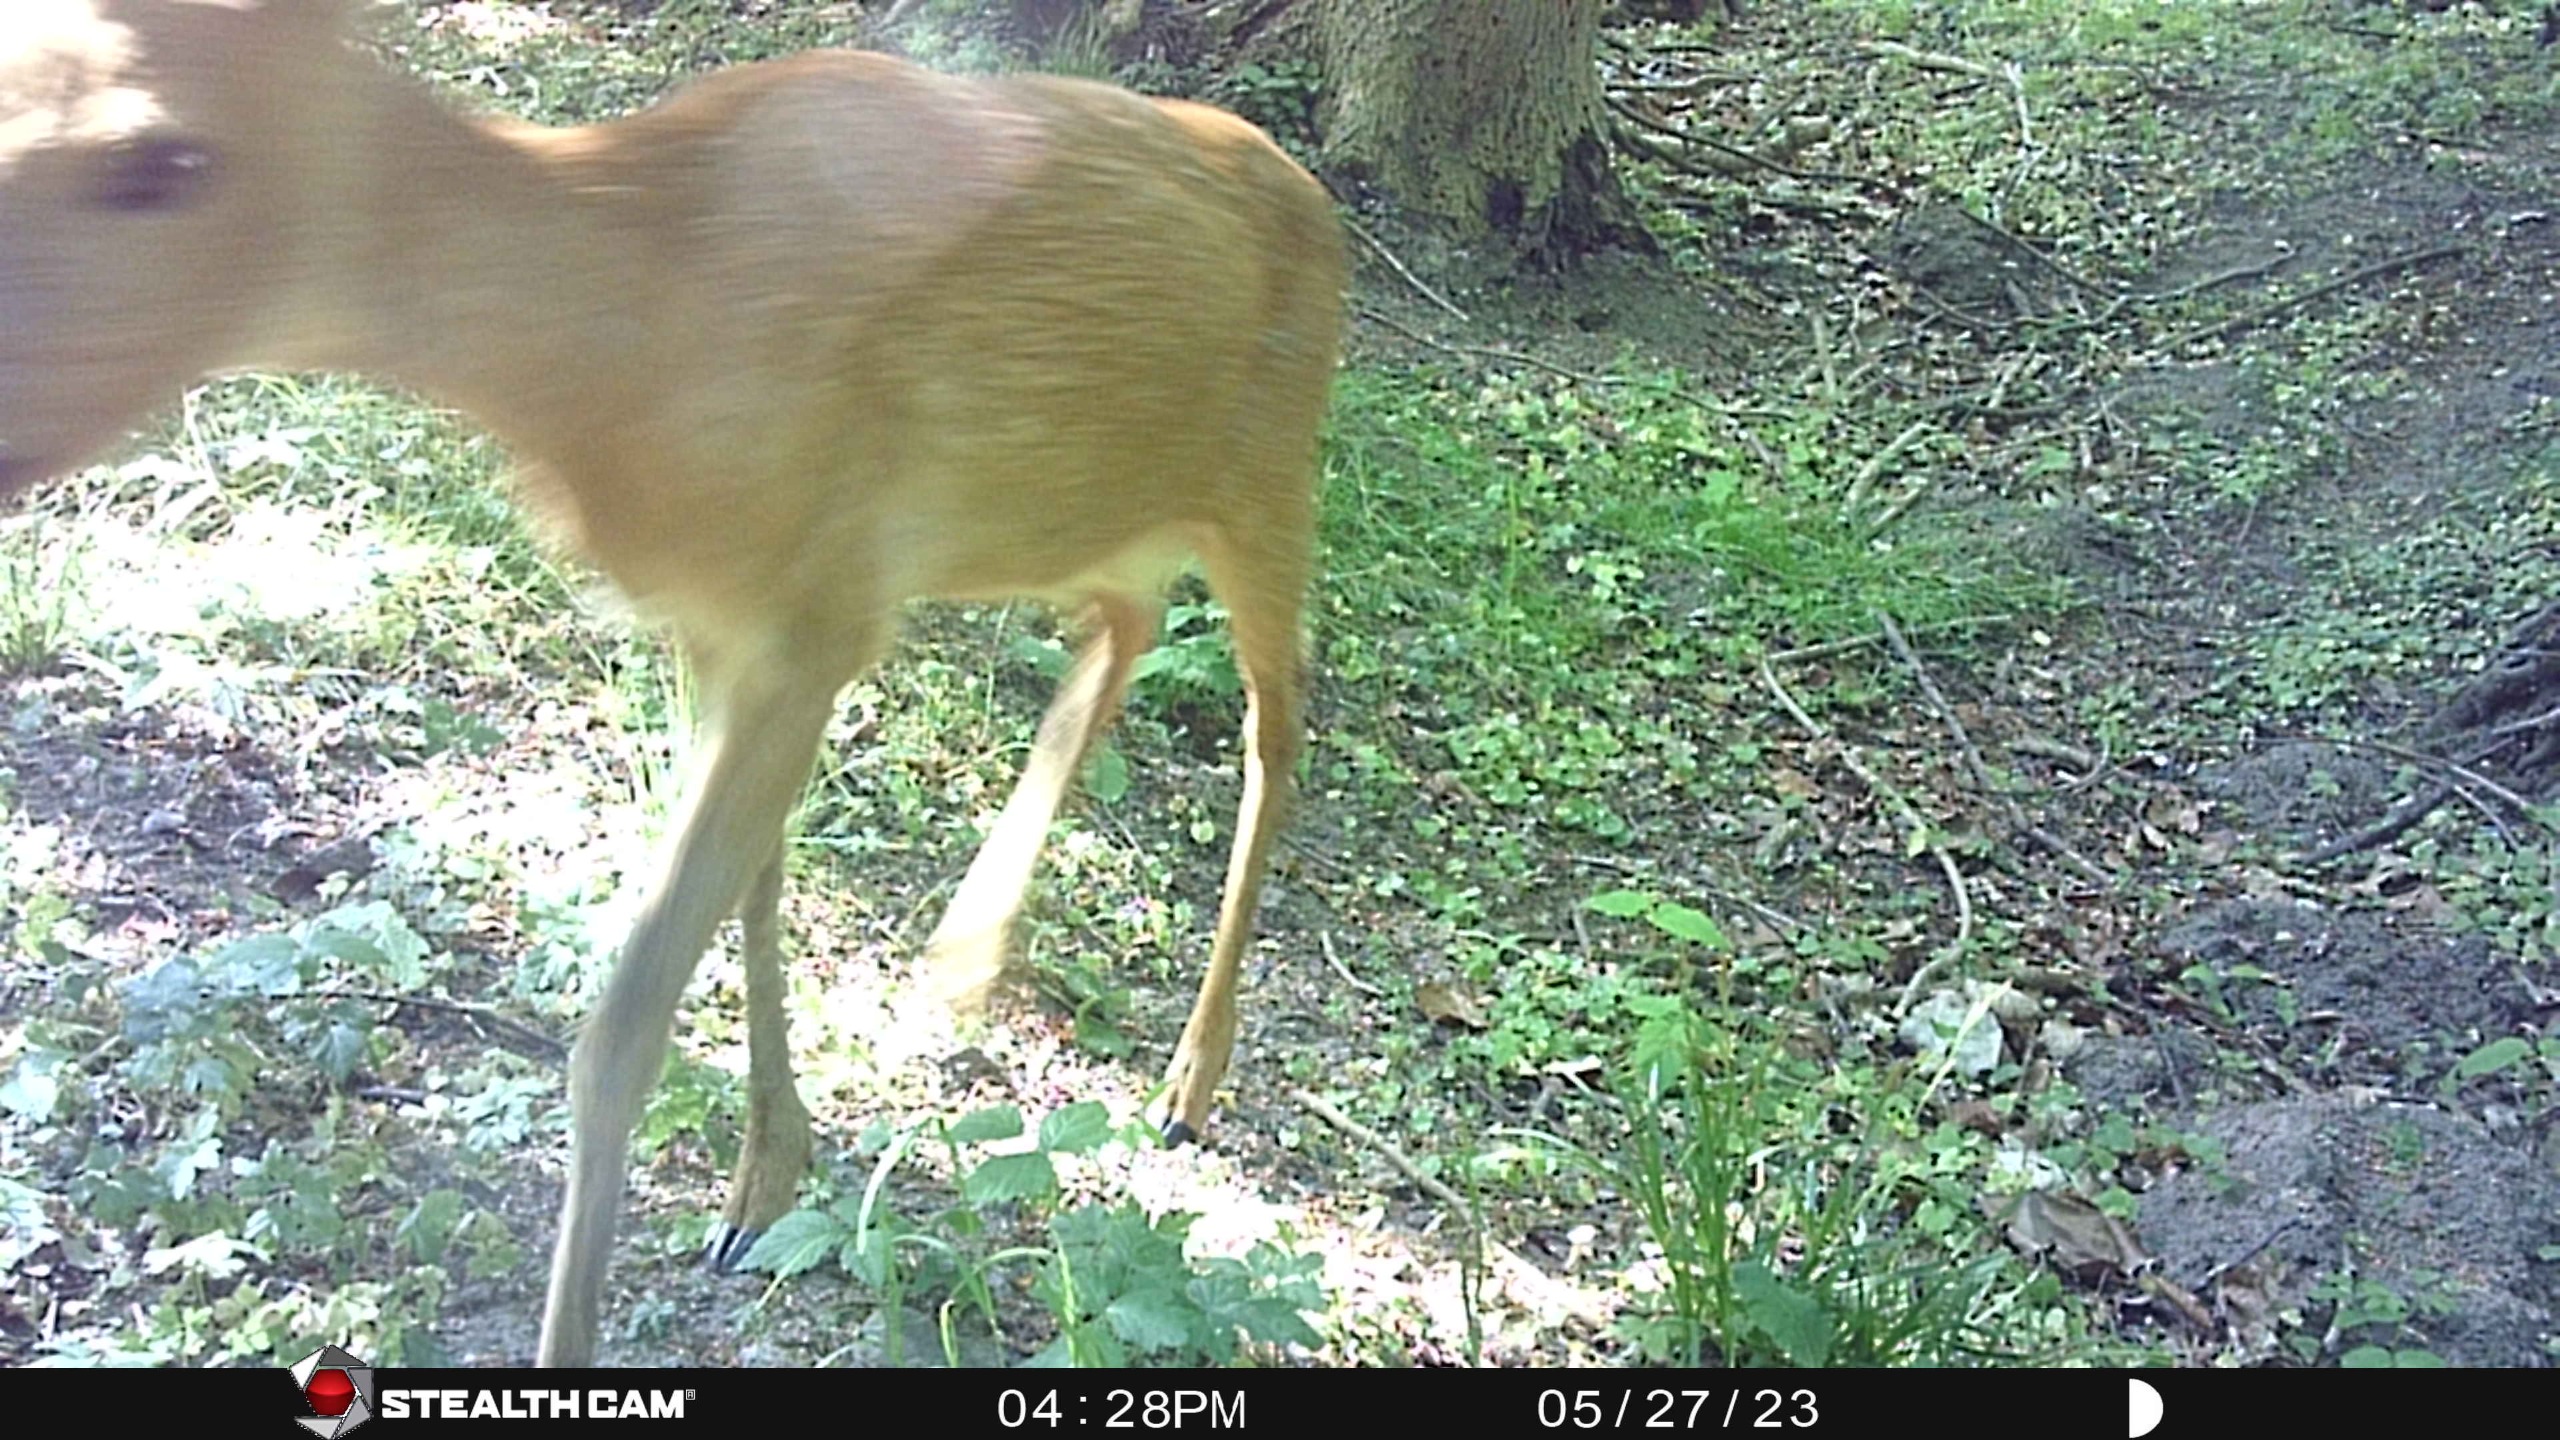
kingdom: Animalia
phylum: Chordata
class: Mammalia
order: Artiodactyla
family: Cervidae
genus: Capreolus
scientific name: Capreolus capreolus
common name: Rådyr
